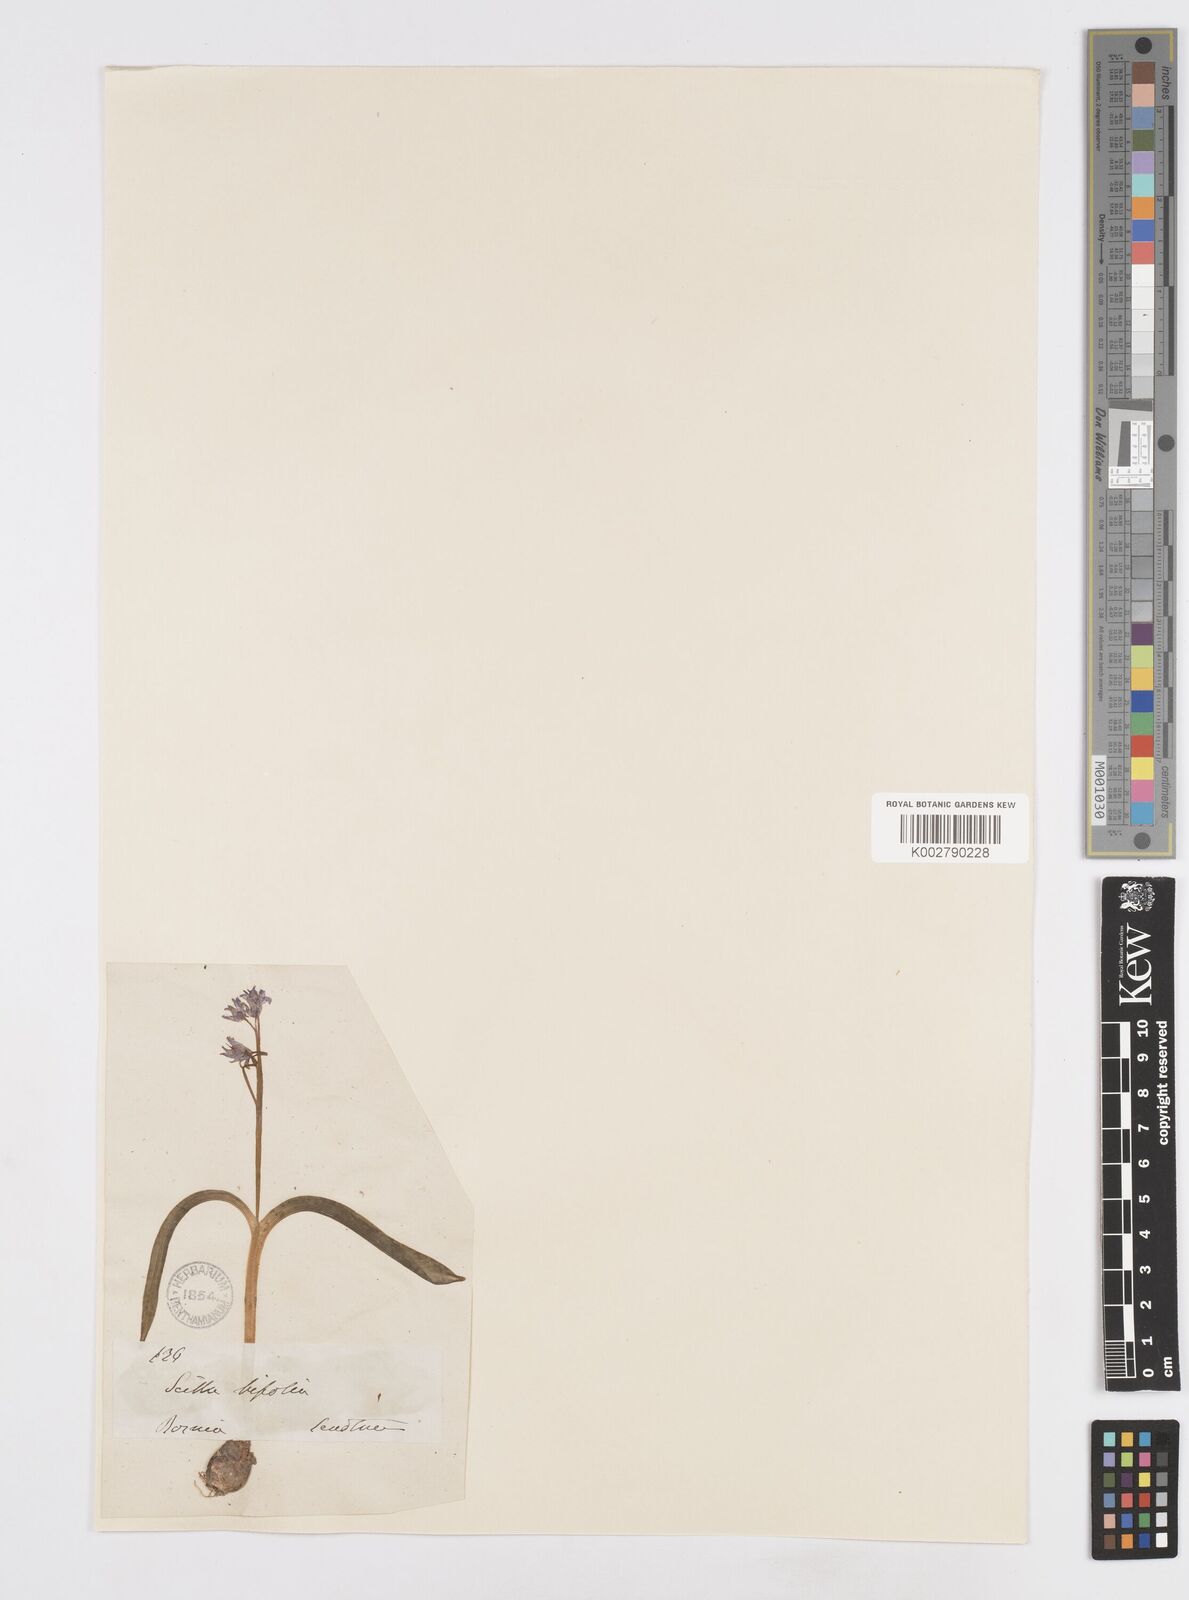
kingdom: Plantae
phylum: Tracheophyta
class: Liliopsida
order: Asparagales
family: Asparagaceae
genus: Scilla
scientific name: Scilla bifolia
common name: Alpine squill
